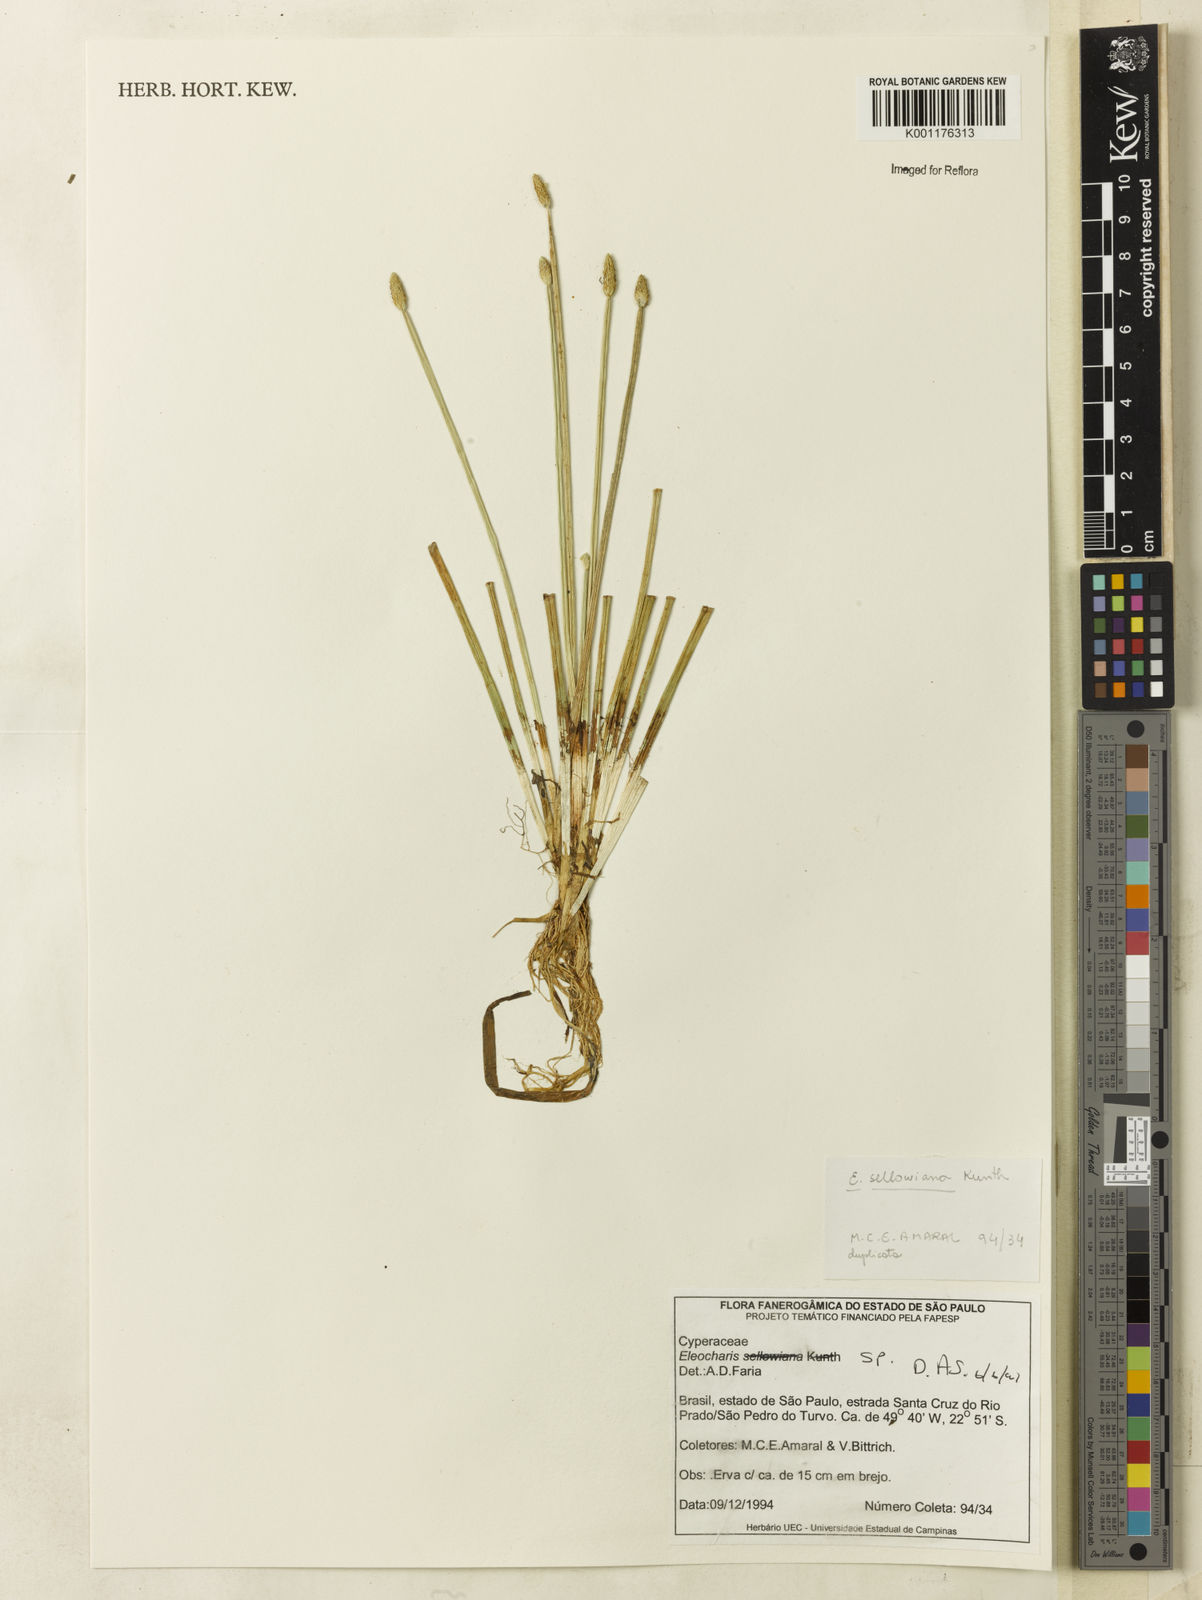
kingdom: Plantae
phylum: Tracheophyta
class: Liliopsida
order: Poales
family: Cyperaceae
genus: Eleocharis
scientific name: Eleocharis
